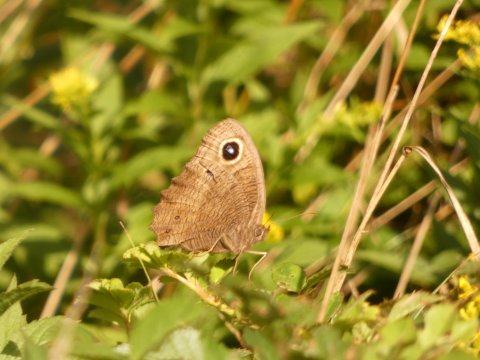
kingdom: Animalia
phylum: Arthropoda
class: Insecta
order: Lepidoptera
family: Nymphalidae
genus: Cercyonis
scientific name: Cercyonis pegala
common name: Common Wood-Nymph
